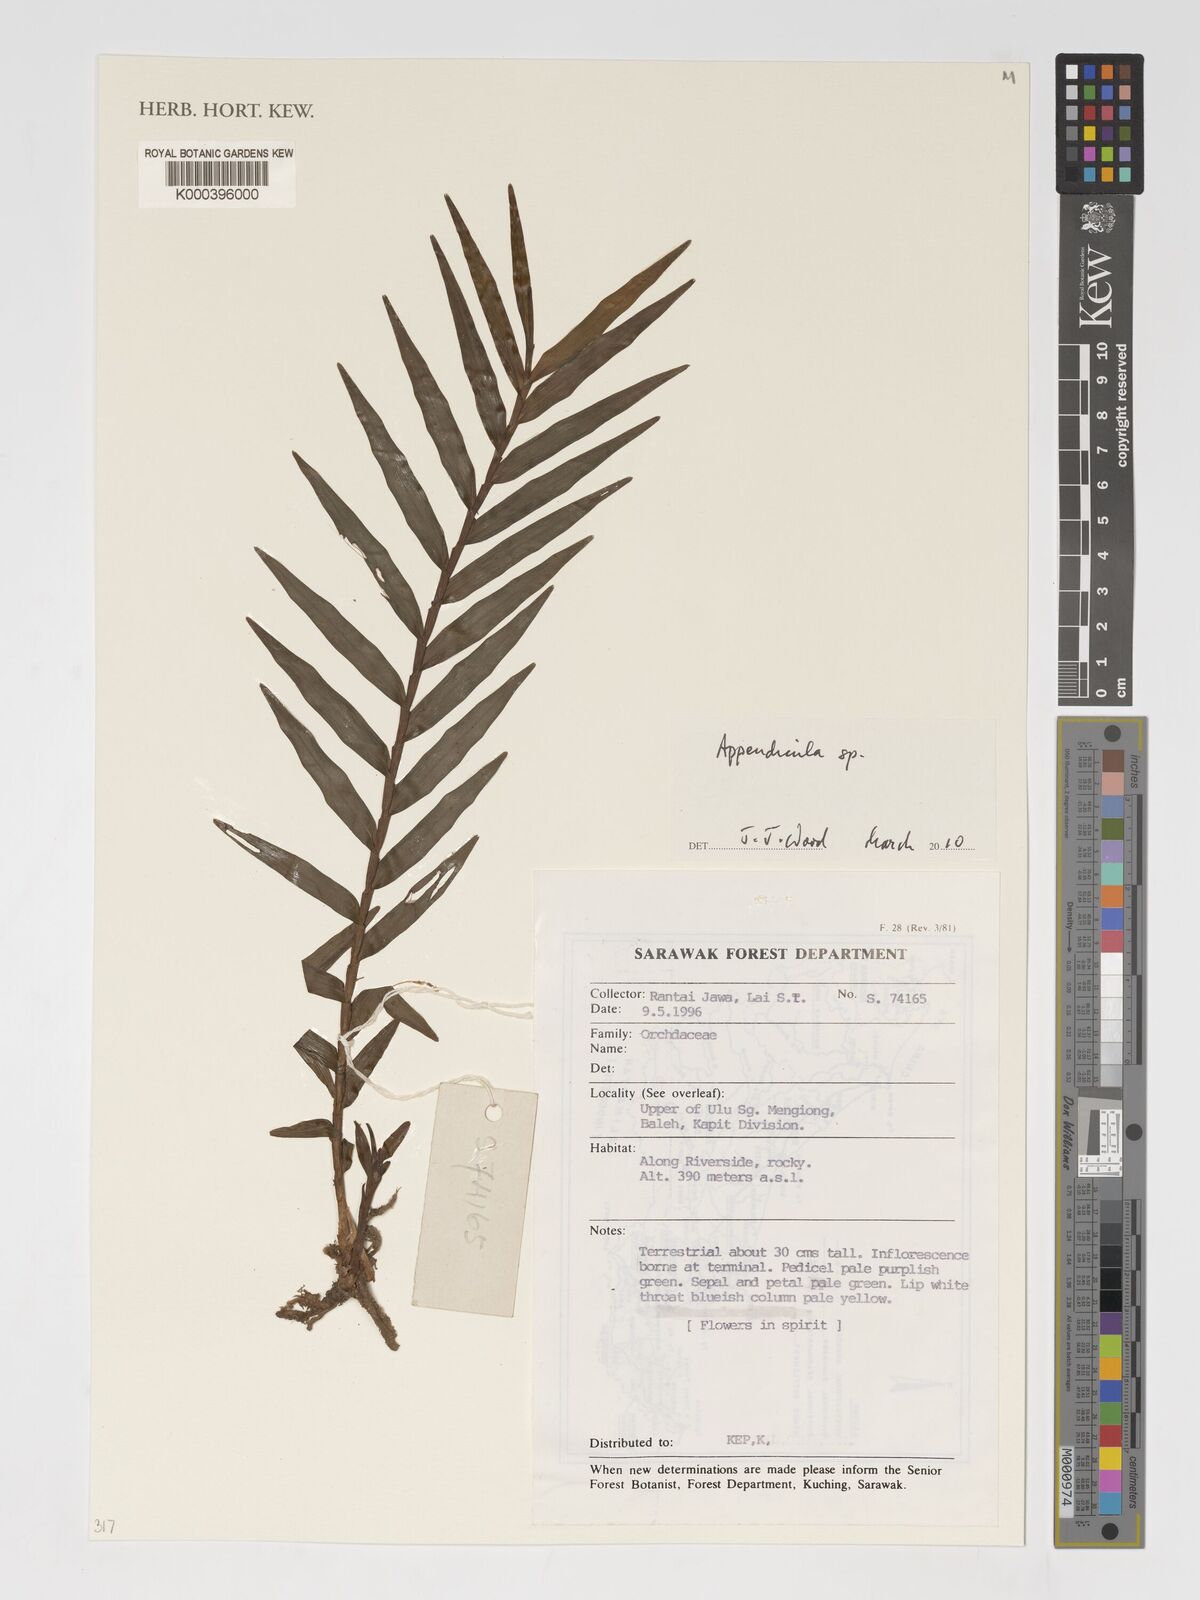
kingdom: Plantae
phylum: Tracheophyta
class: Liliopsida
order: Asparagales
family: Orchidaceae
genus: Appendicula
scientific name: Appendicula
